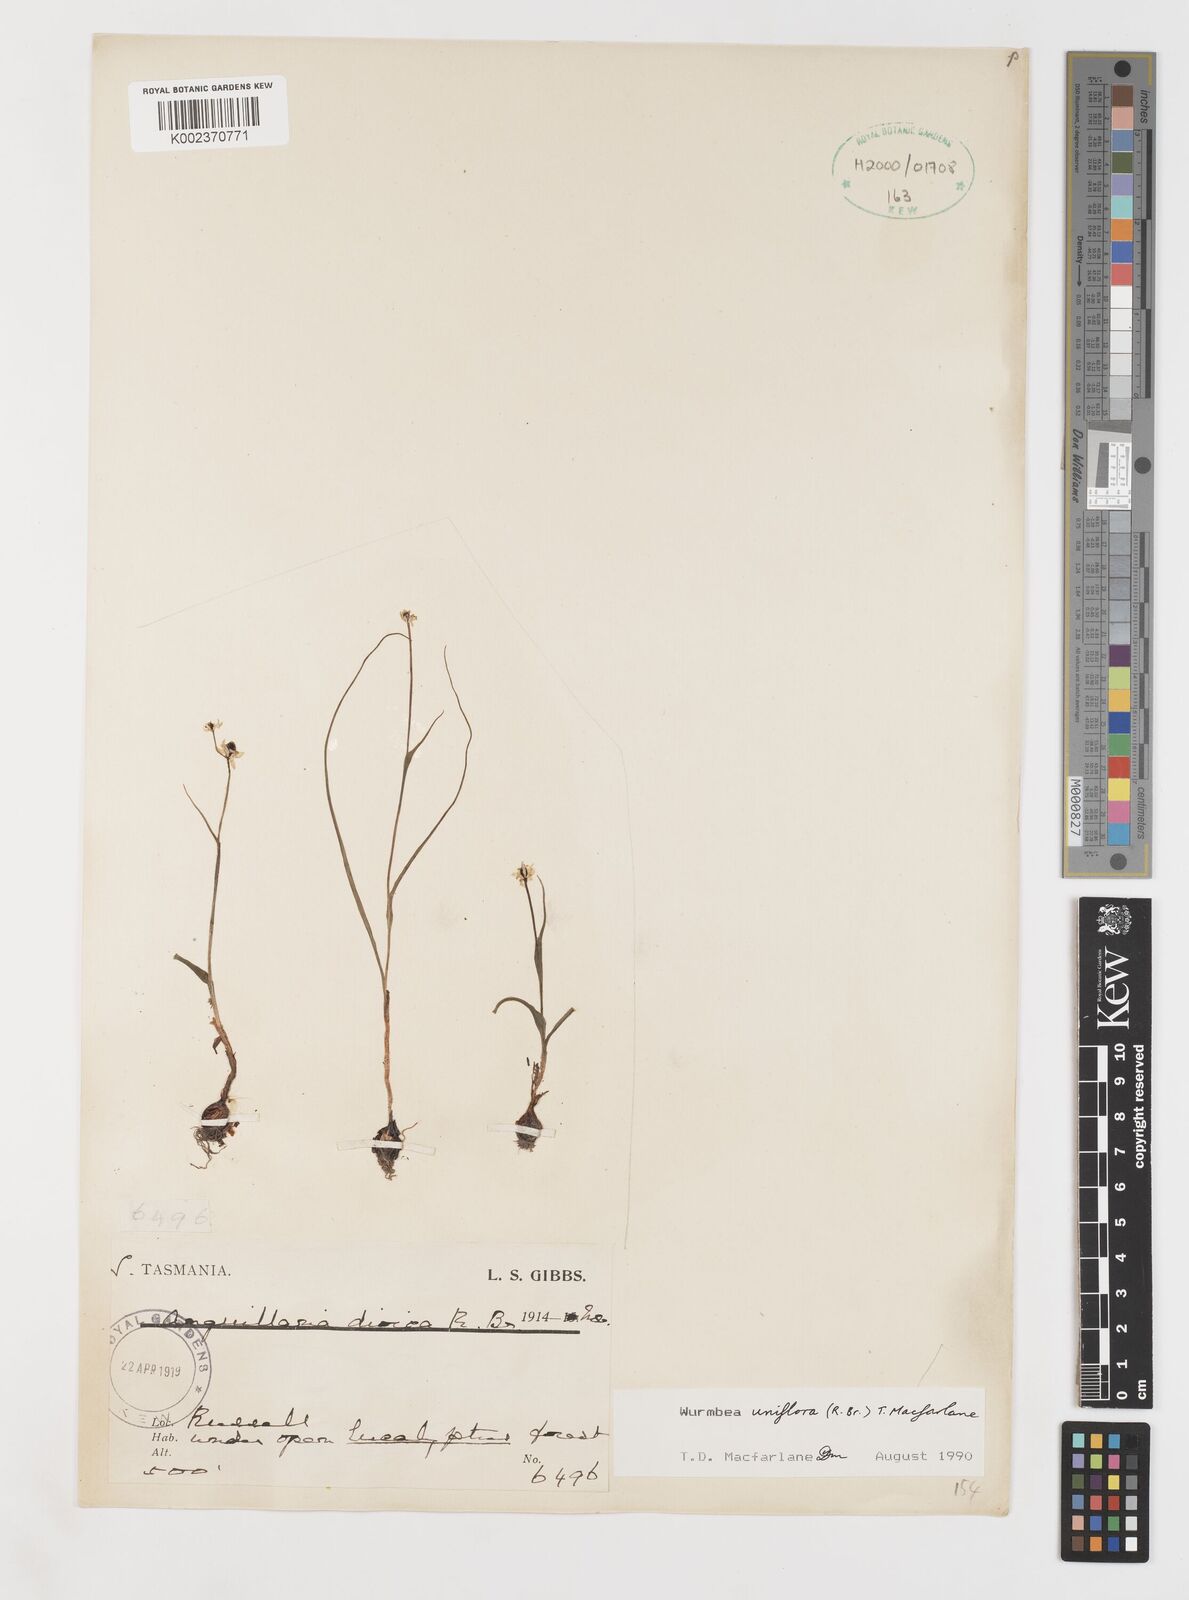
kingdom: Plantae
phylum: Tracheophyta
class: Liliopsida
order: Liliales
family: Colchicaceae
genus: Wurmbea
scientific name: Wurmbea uniflora
